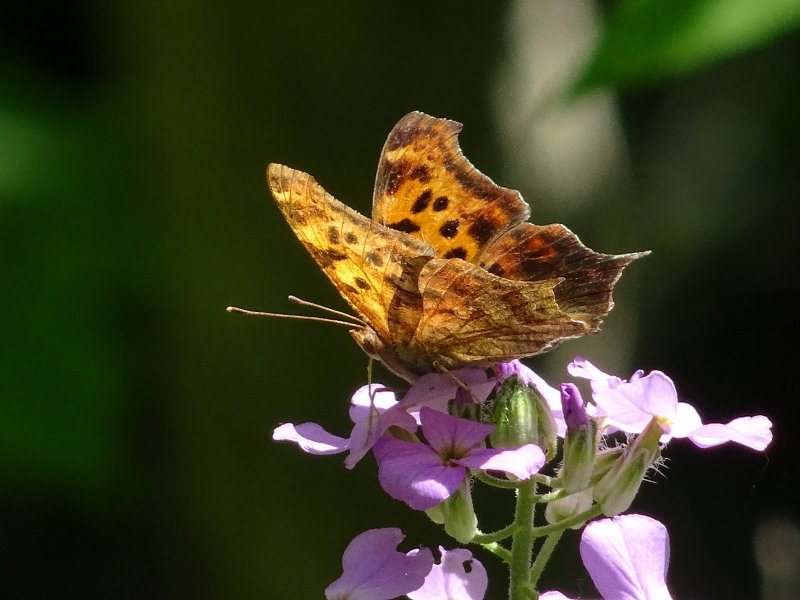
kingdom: Animalia
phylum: Arthropoda
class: Insecta
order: Lepidoptera
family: Nymphalidae
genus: Polygonia
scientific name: Polygonia interrogationis
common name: Question Mark
